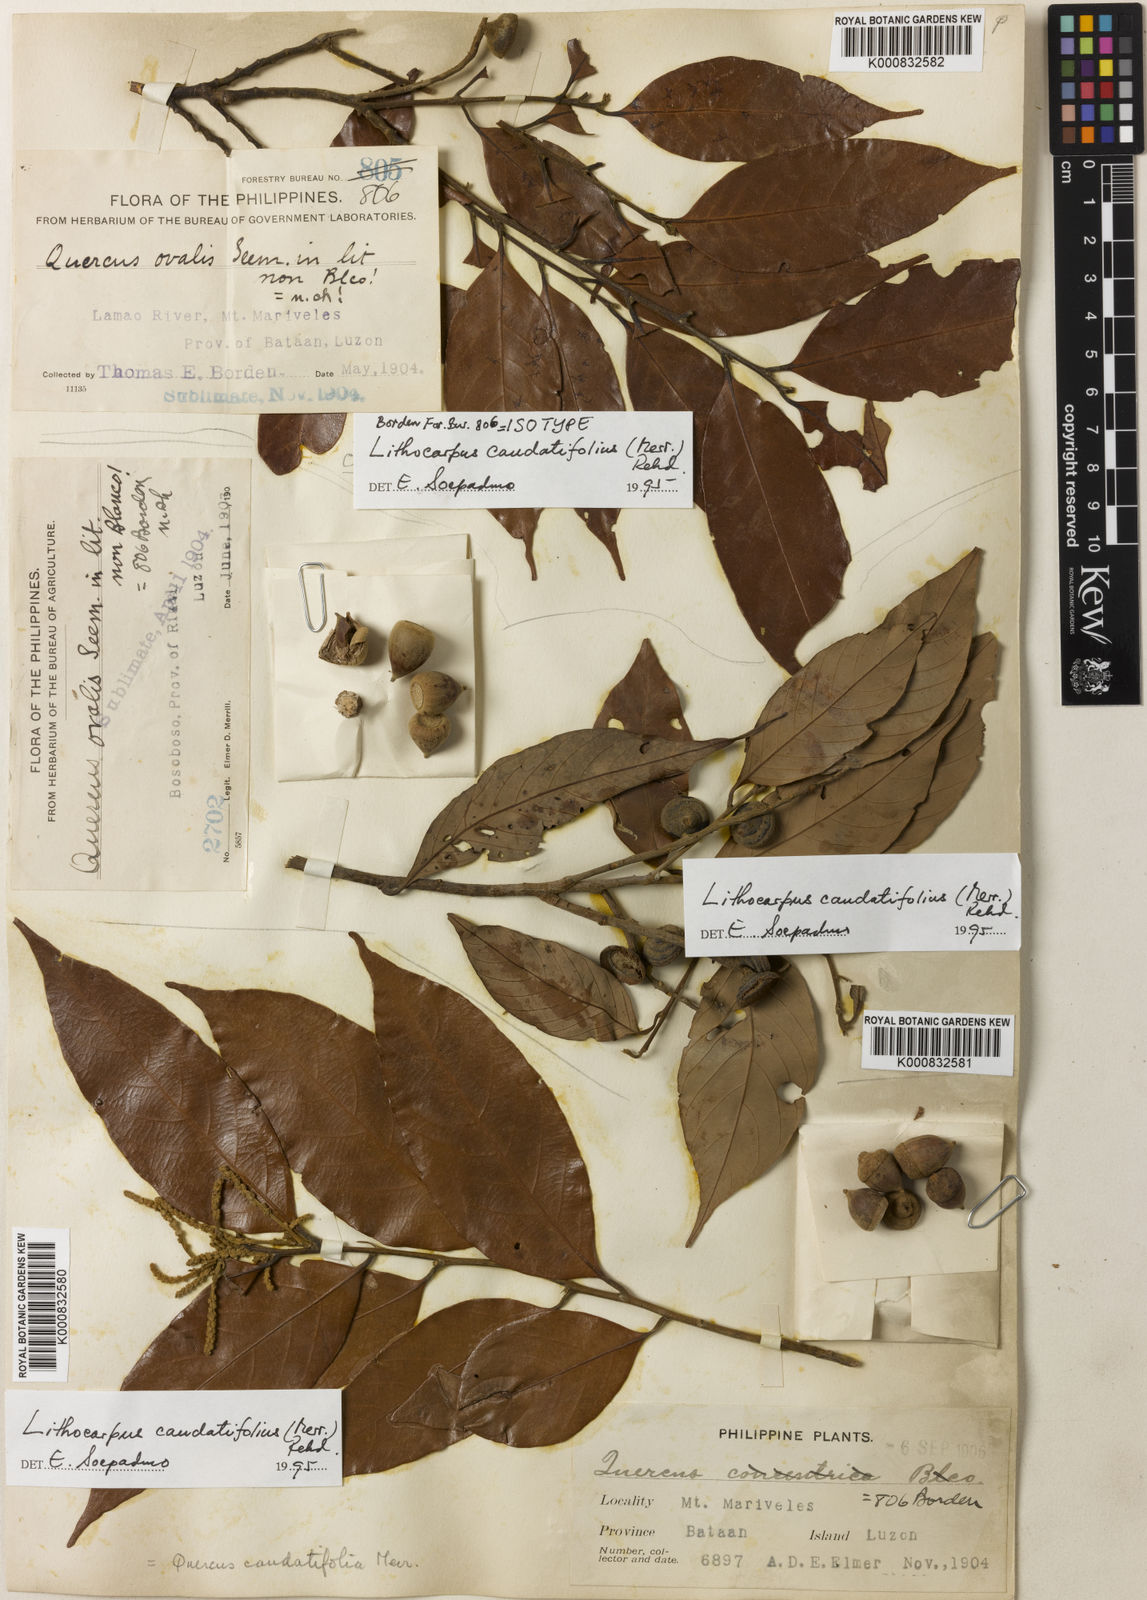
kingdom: Plantae
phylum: Tracheophyta
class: Magnoliopsida
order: Fagales
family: Fagaceae
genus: Lithocarpus
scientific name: Lithocarpus caudatifolius
